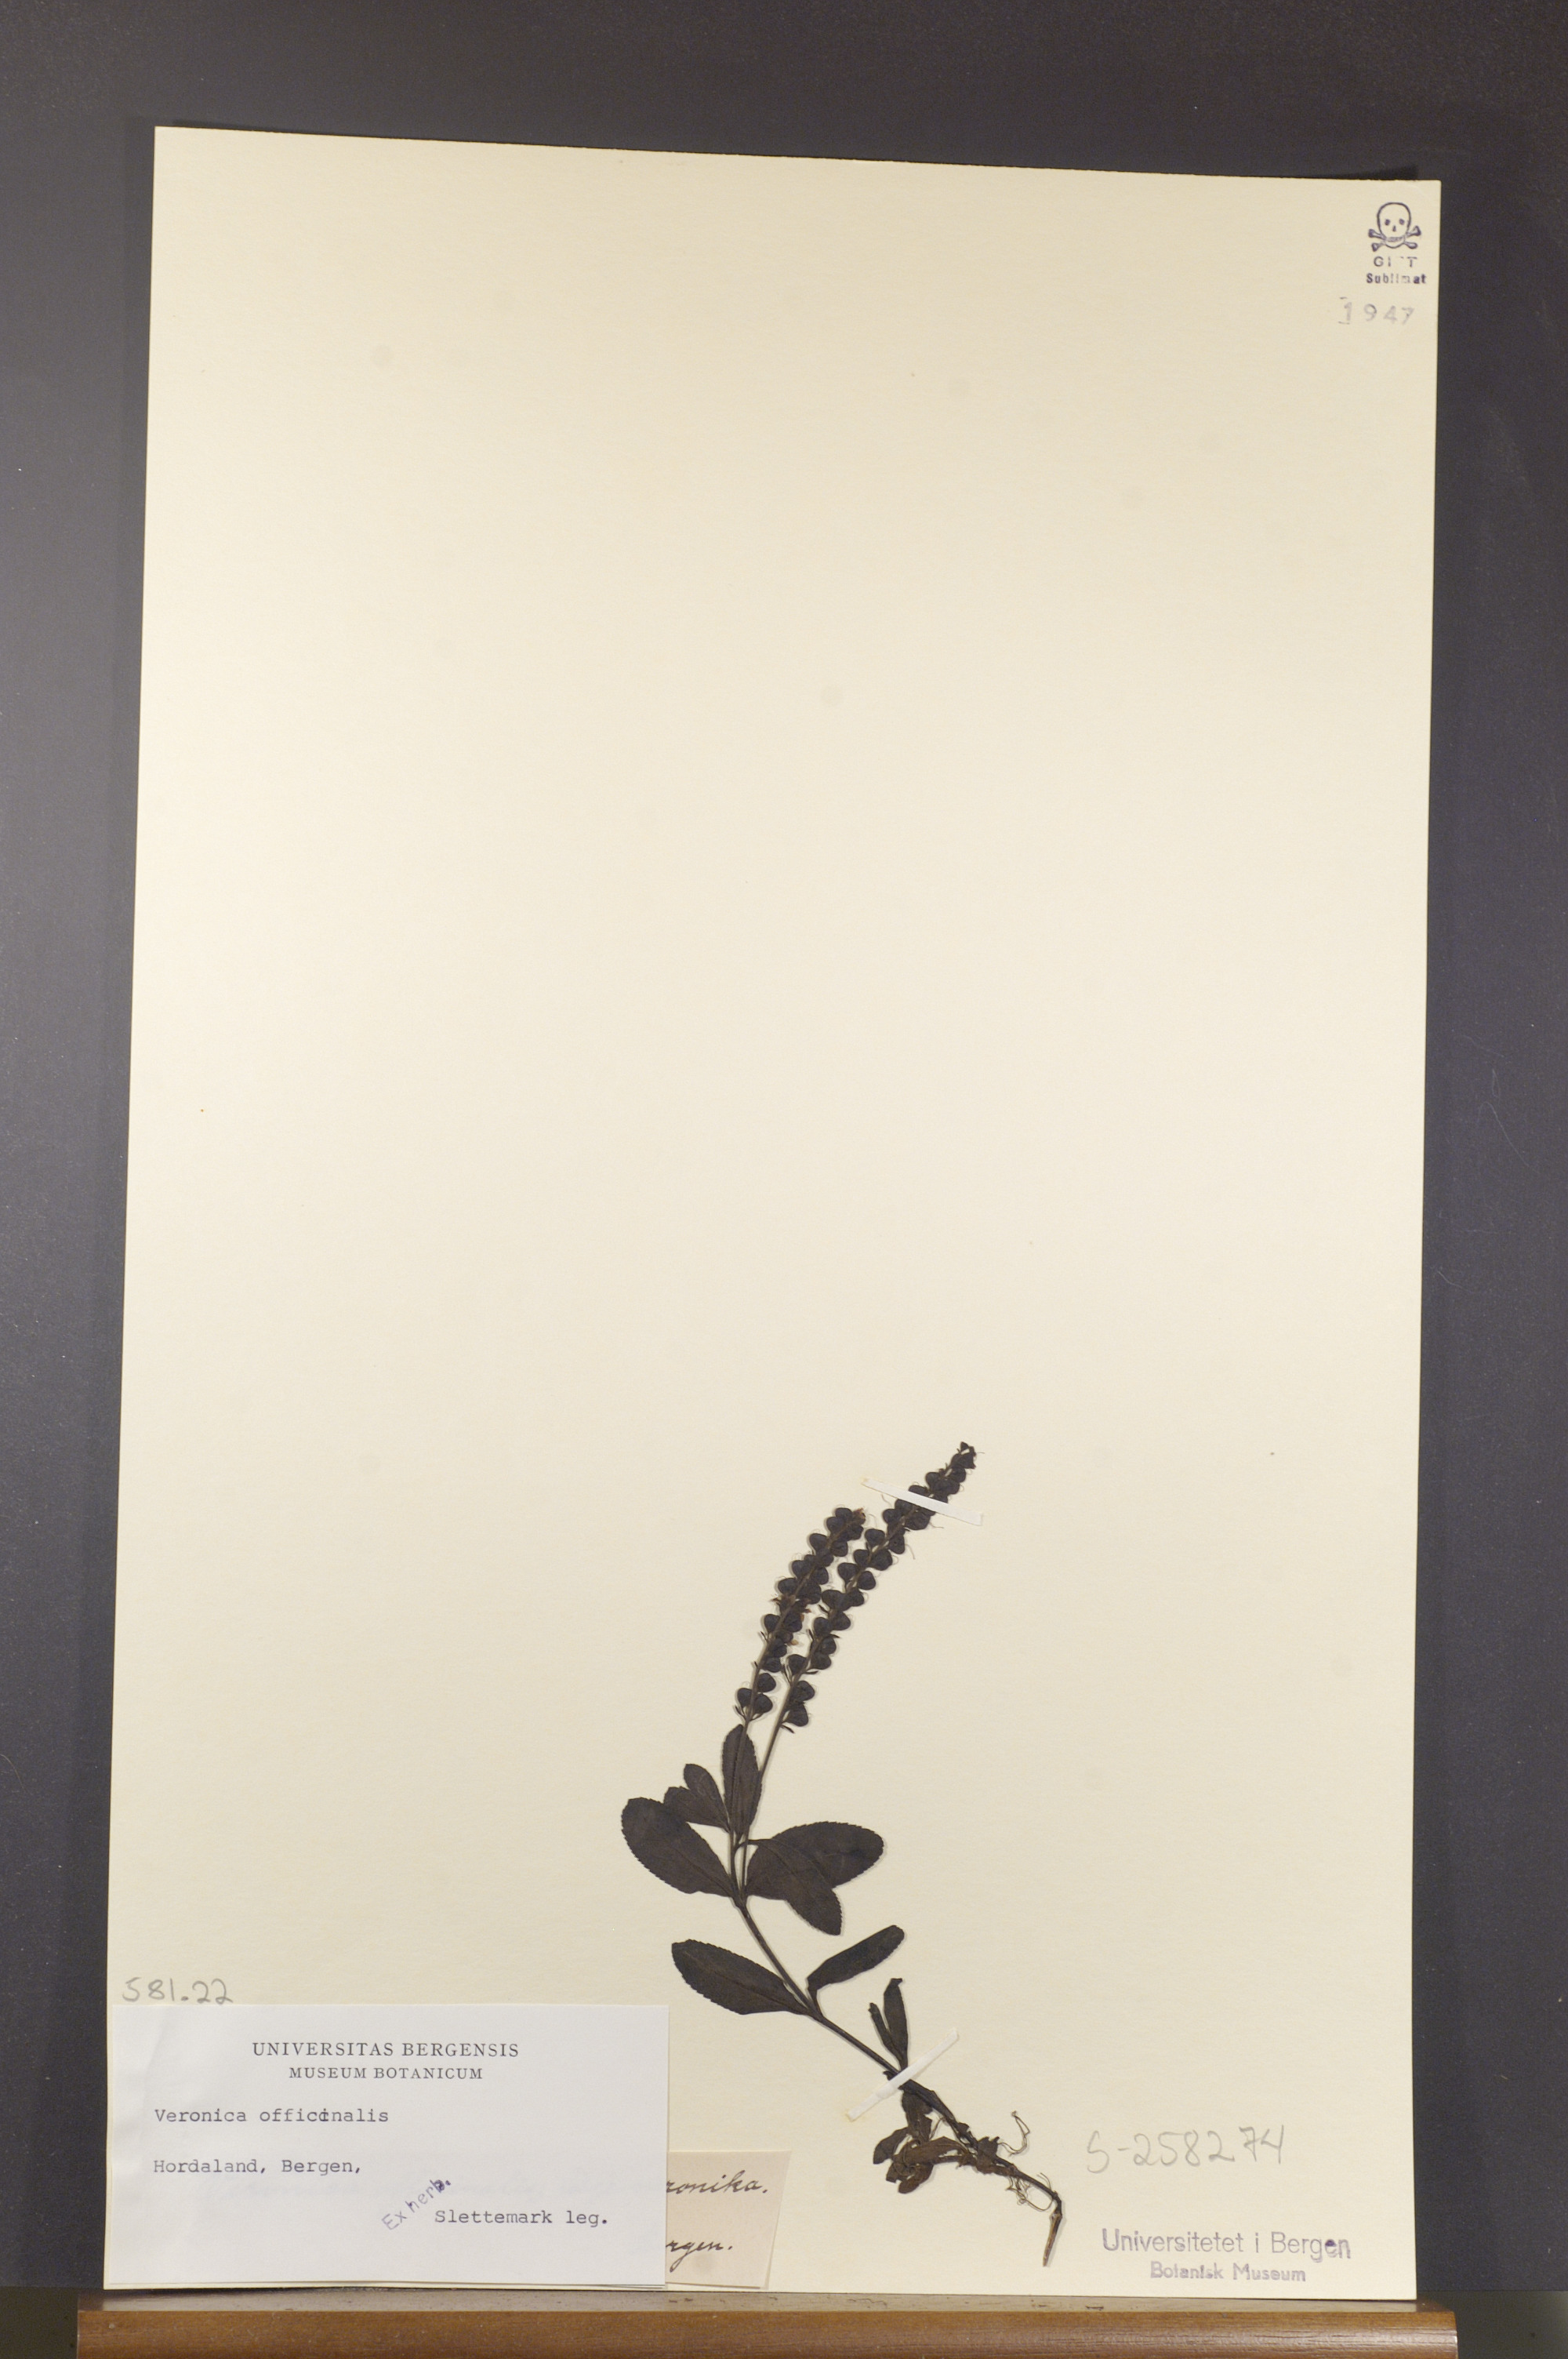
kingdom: Plantae
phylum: Tracheophyta
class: Magnoliopsida
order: Lamiales
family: Plantaginaceae
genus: Veronica
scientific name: Veronica officinalis
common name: Common speedwell
